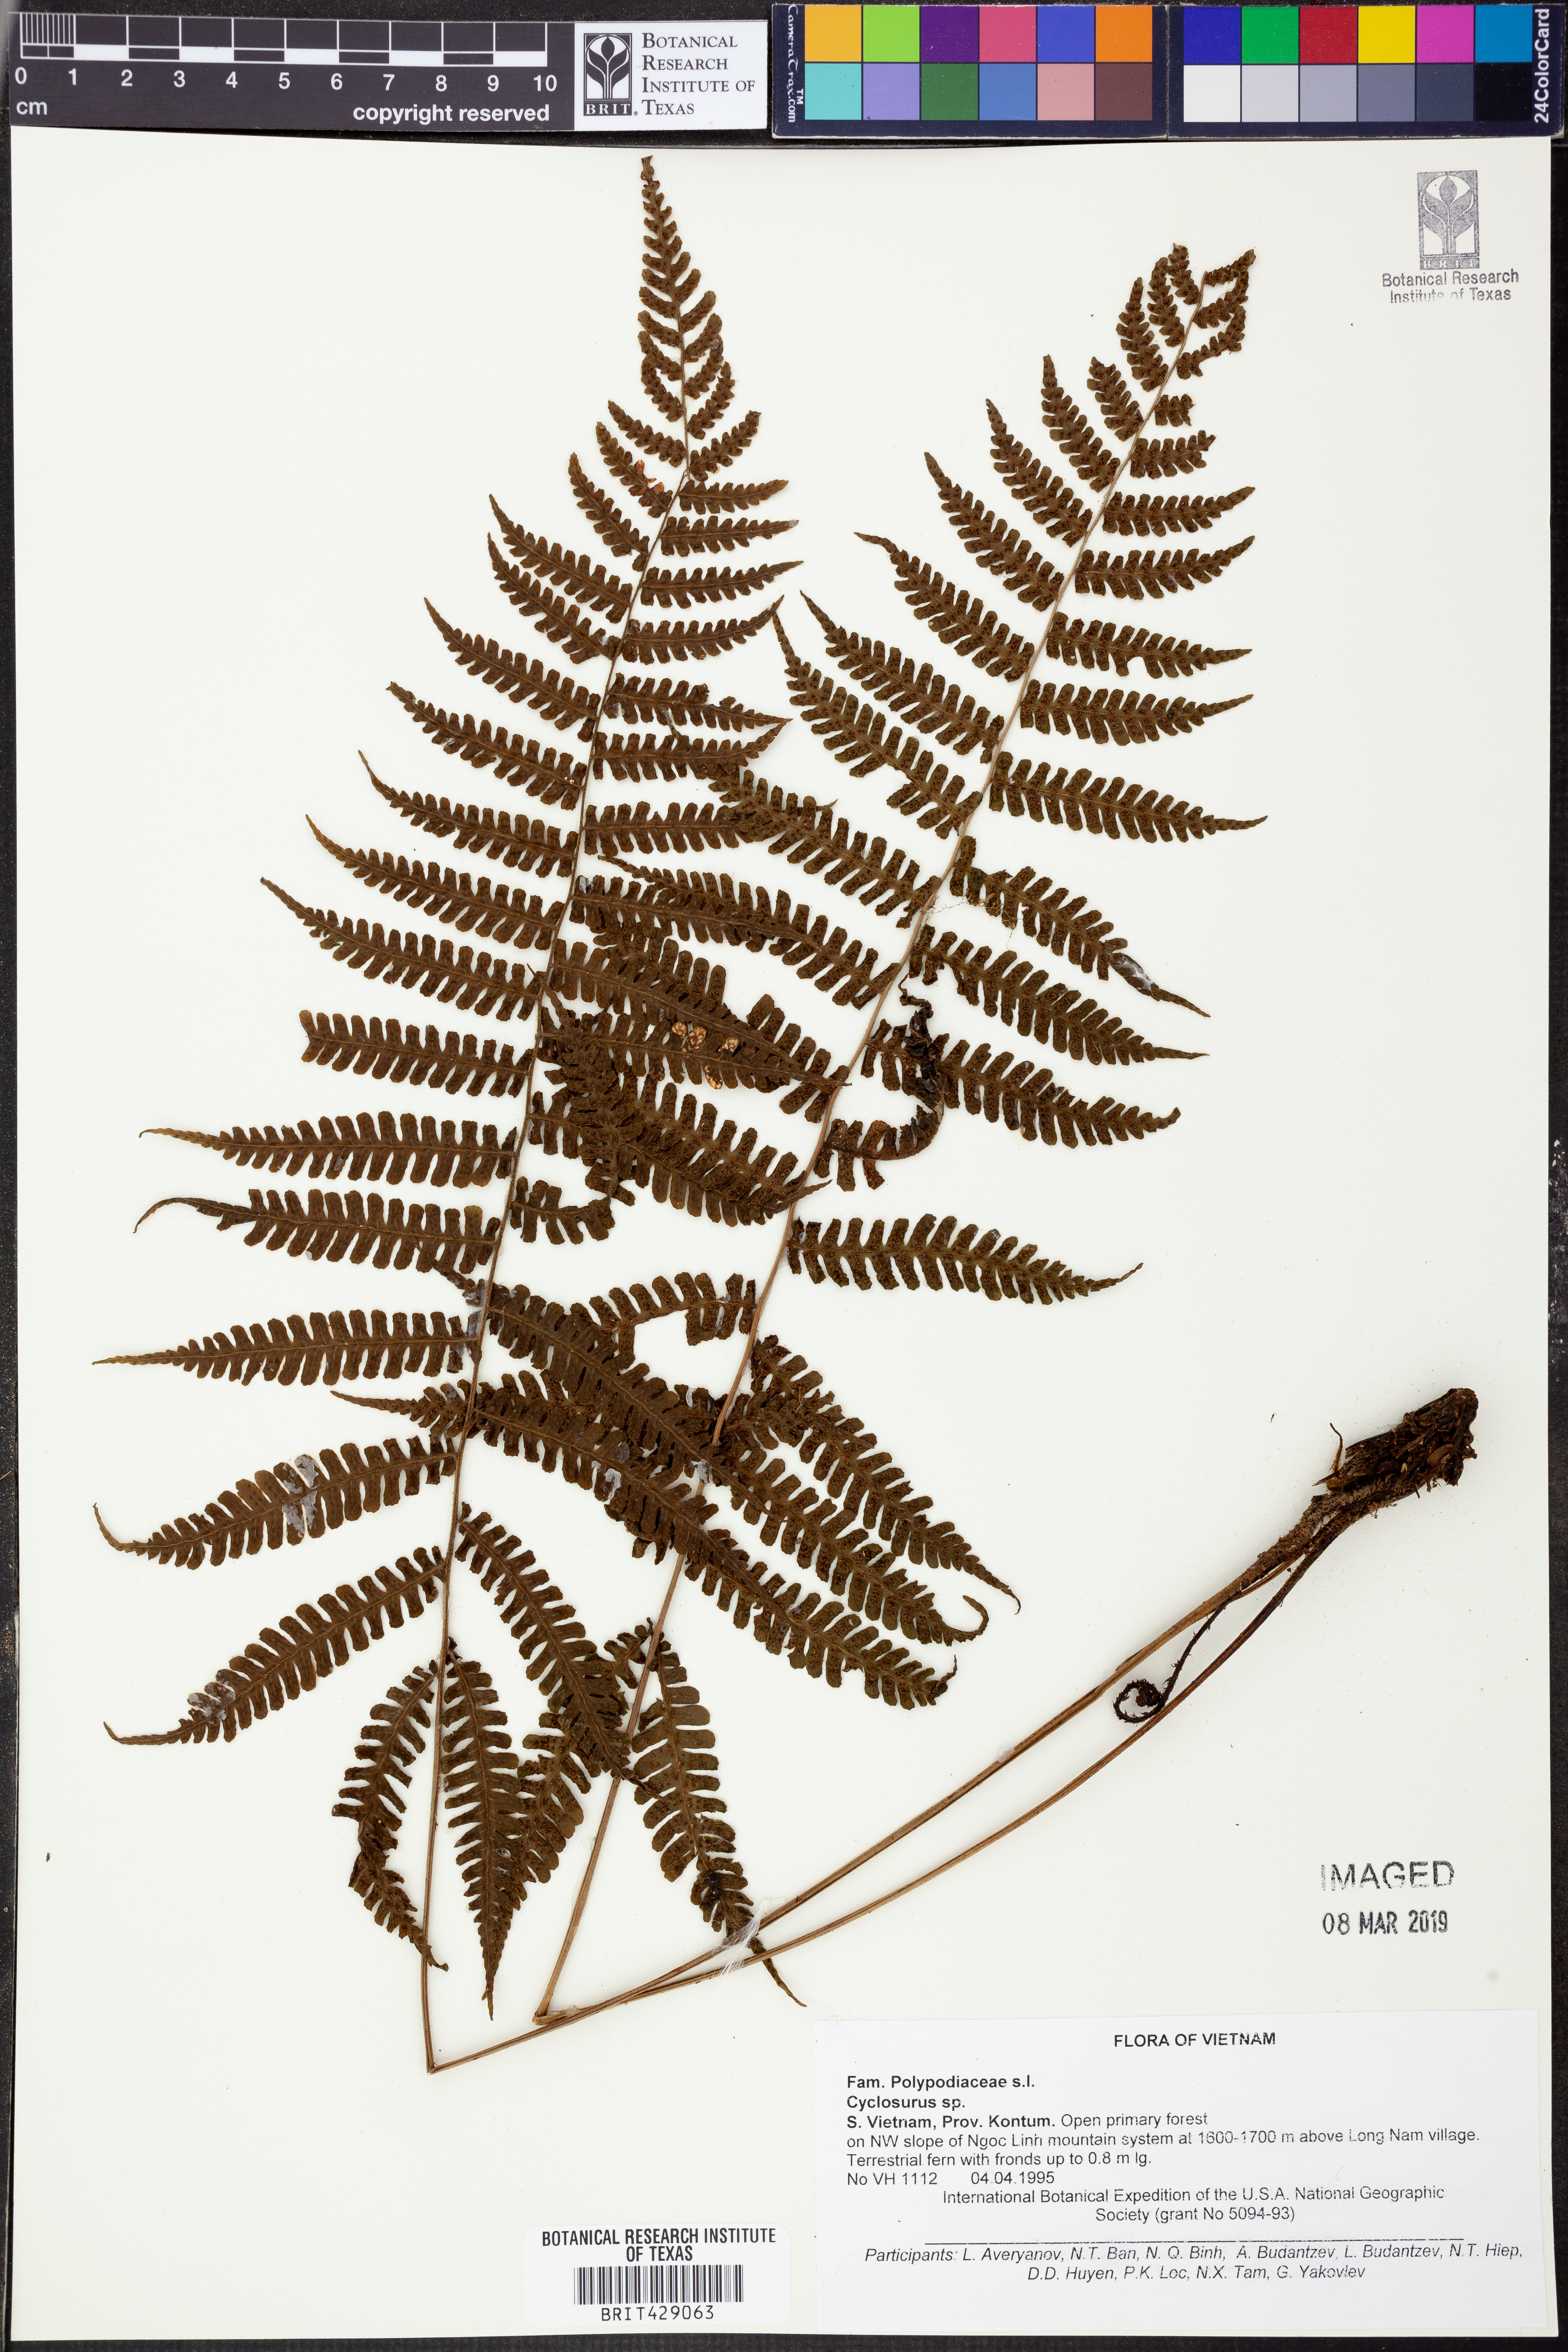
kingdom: Plantae
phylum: Tracheophyta
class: Polypodiopsida
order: Polypodiales
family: Thelypteridaceae
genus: Cyclosorus
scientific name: Cyclosorus
